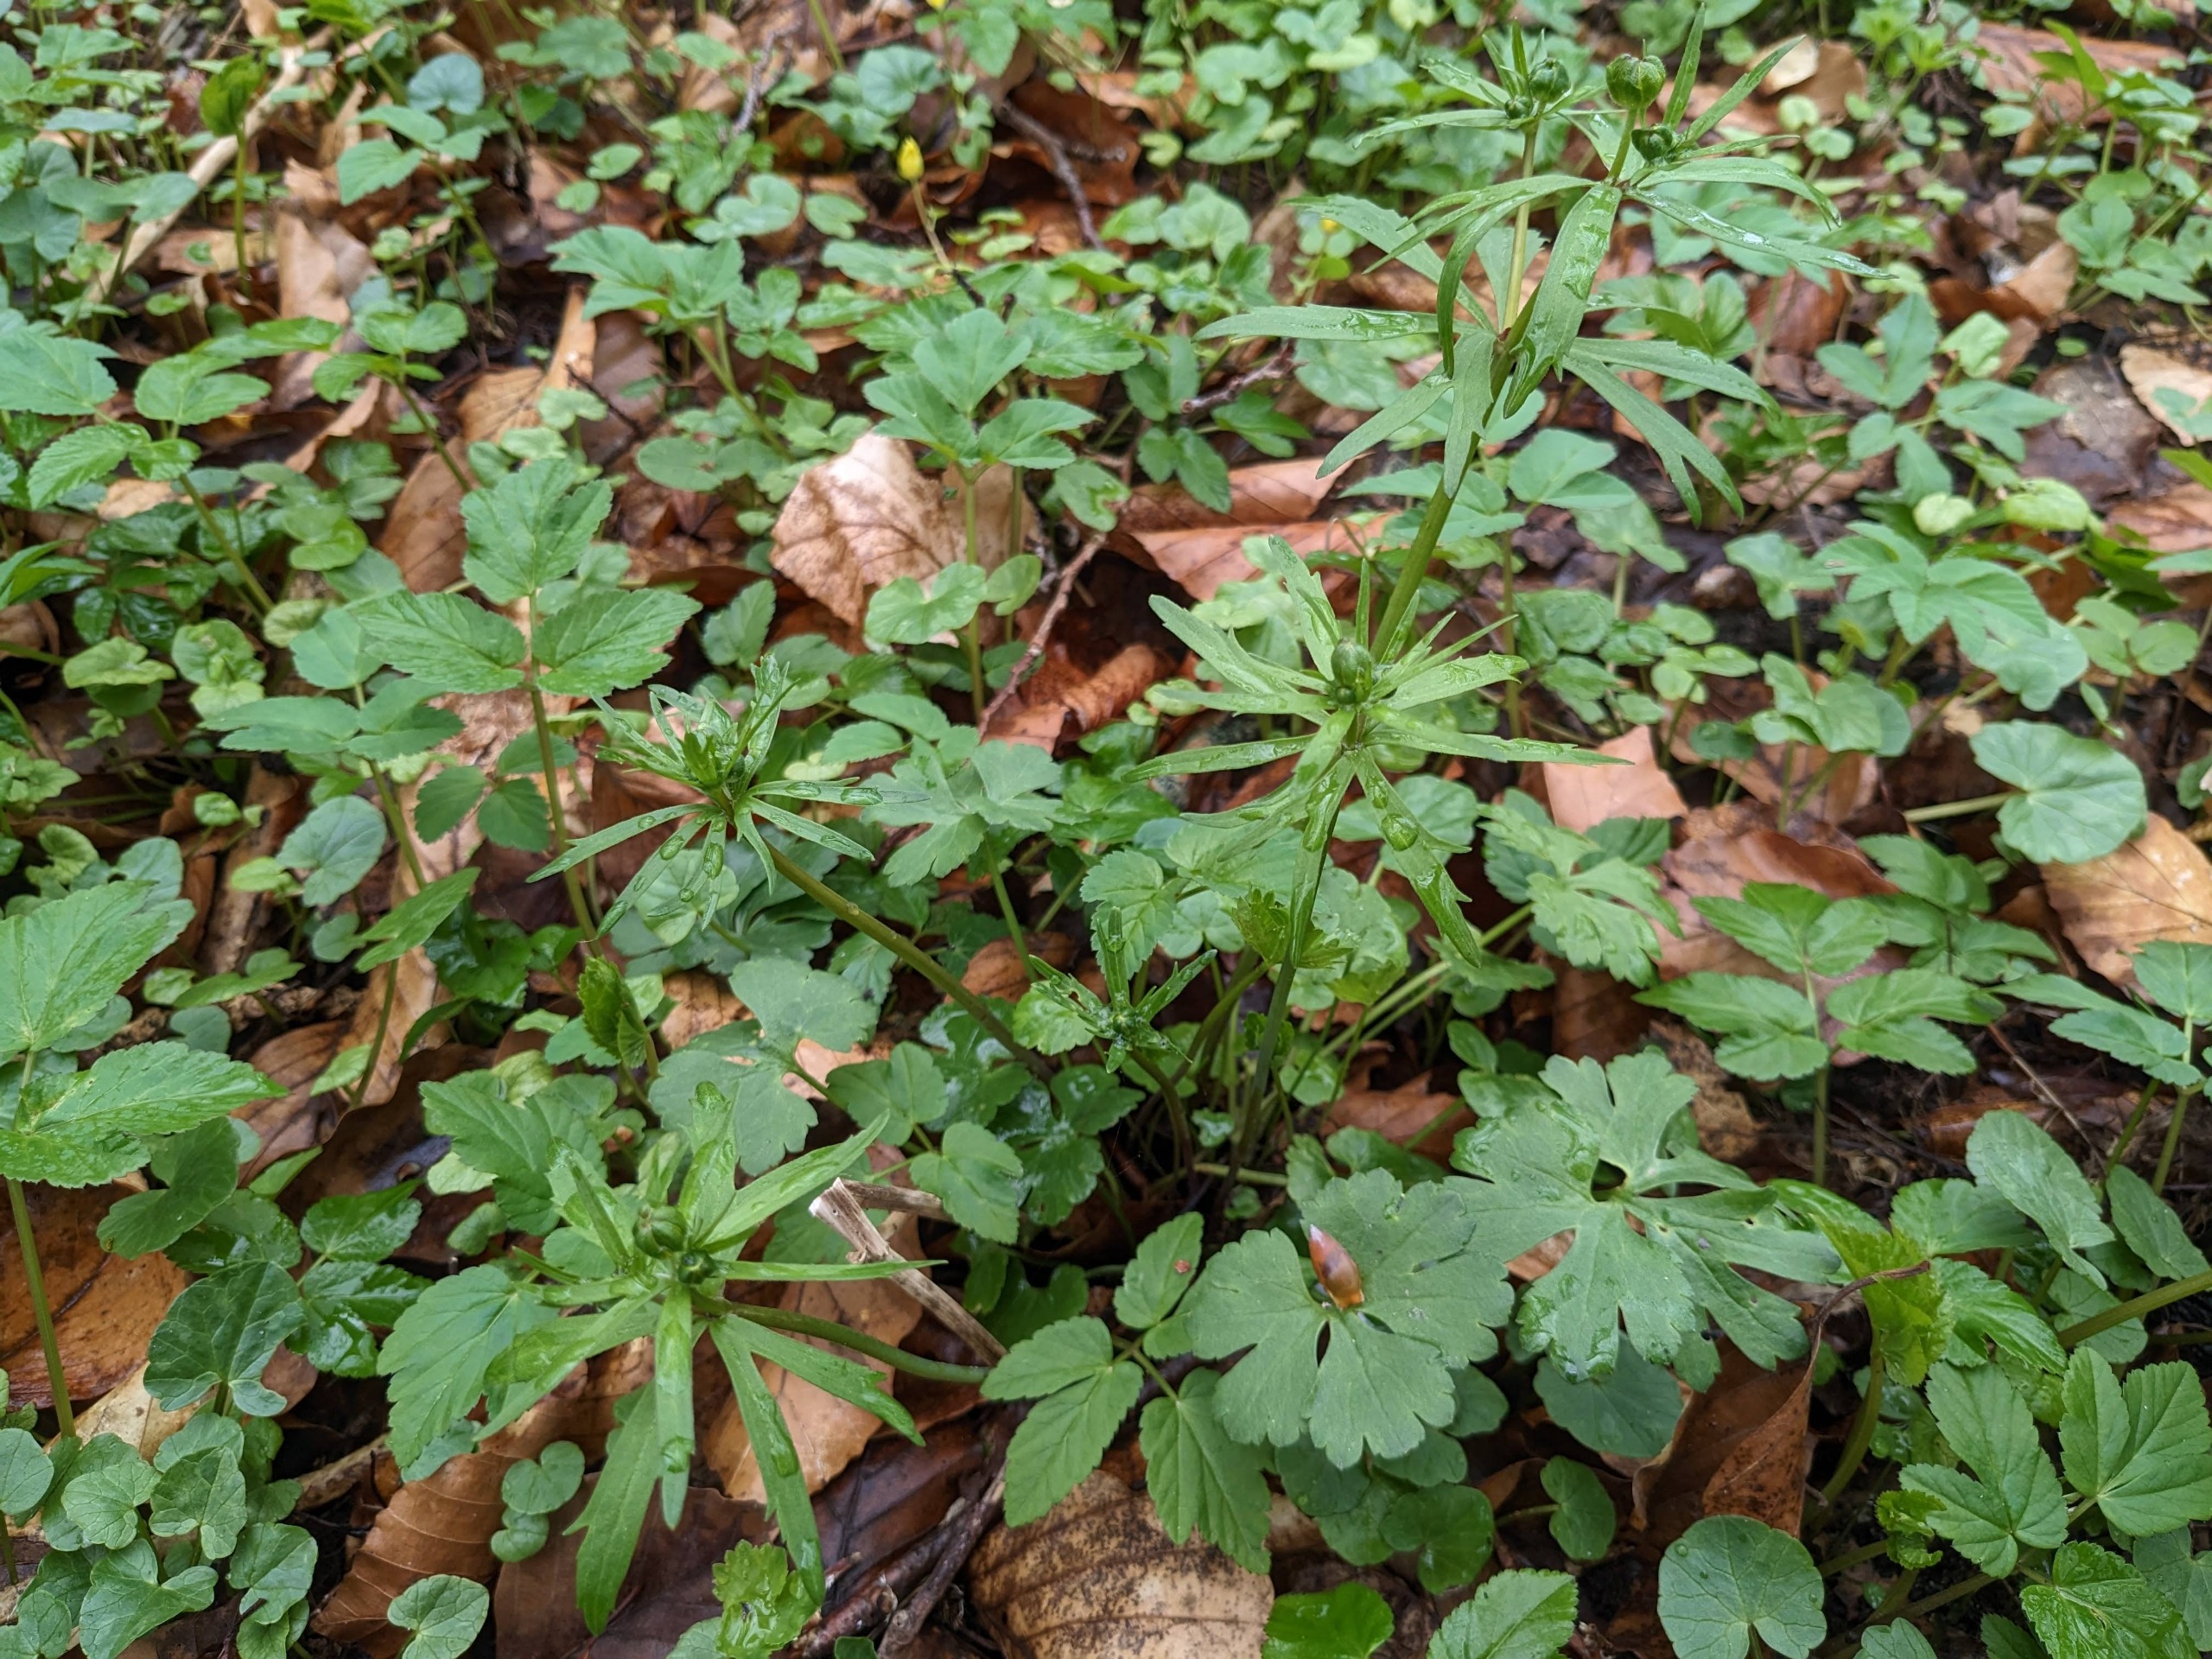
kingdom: Plantae
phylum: Tracheophyta
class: Magnoliopsida
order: Ranunculales
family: Ranunculaceae
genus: Ranunculus
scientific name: Ranunculus auricomus
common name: Nyrebladet ranunkel
